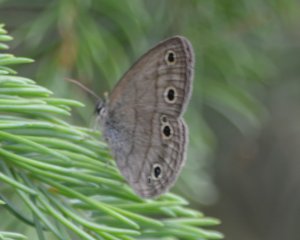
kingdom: Animalia
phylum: Arthropoda
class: Insecta
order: Lepidoptera
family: Nymphalidae
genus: Euptychia
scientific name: Euptychia cymela
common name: Little Wood Satyr
